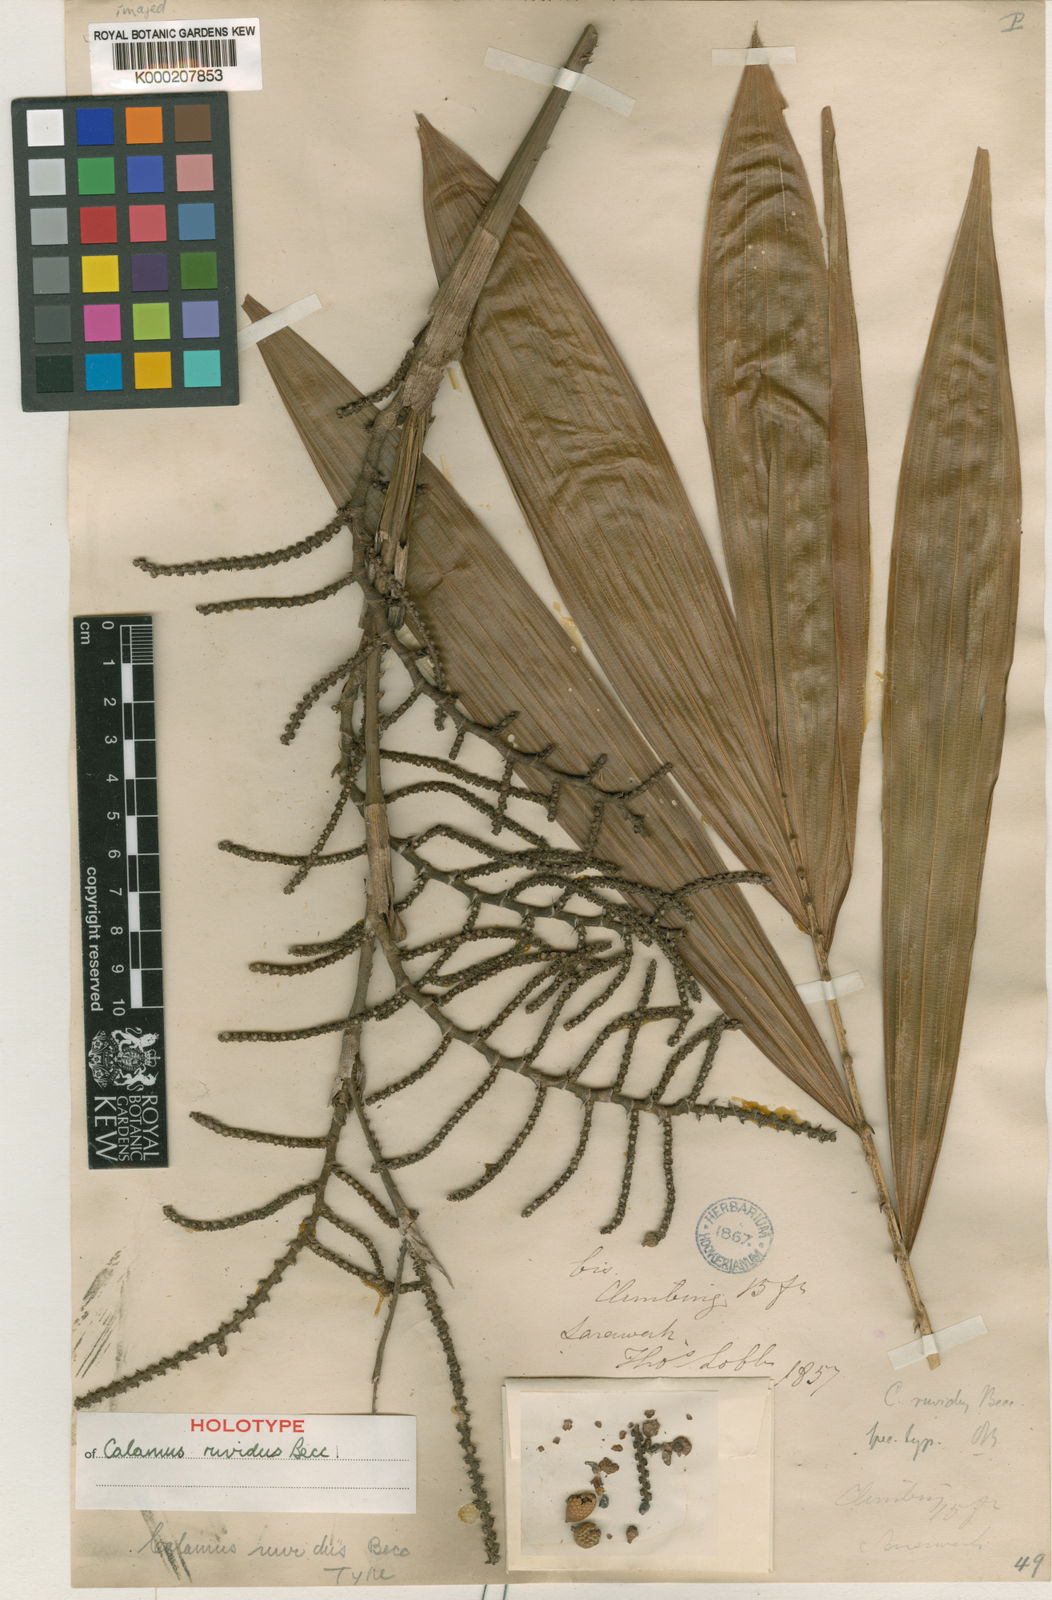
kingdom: Plantae
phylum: Tracheophyta
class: Liliopsida
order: Arecales
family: Arecaceae
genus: Calamus
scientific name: Calamus ruvidus
